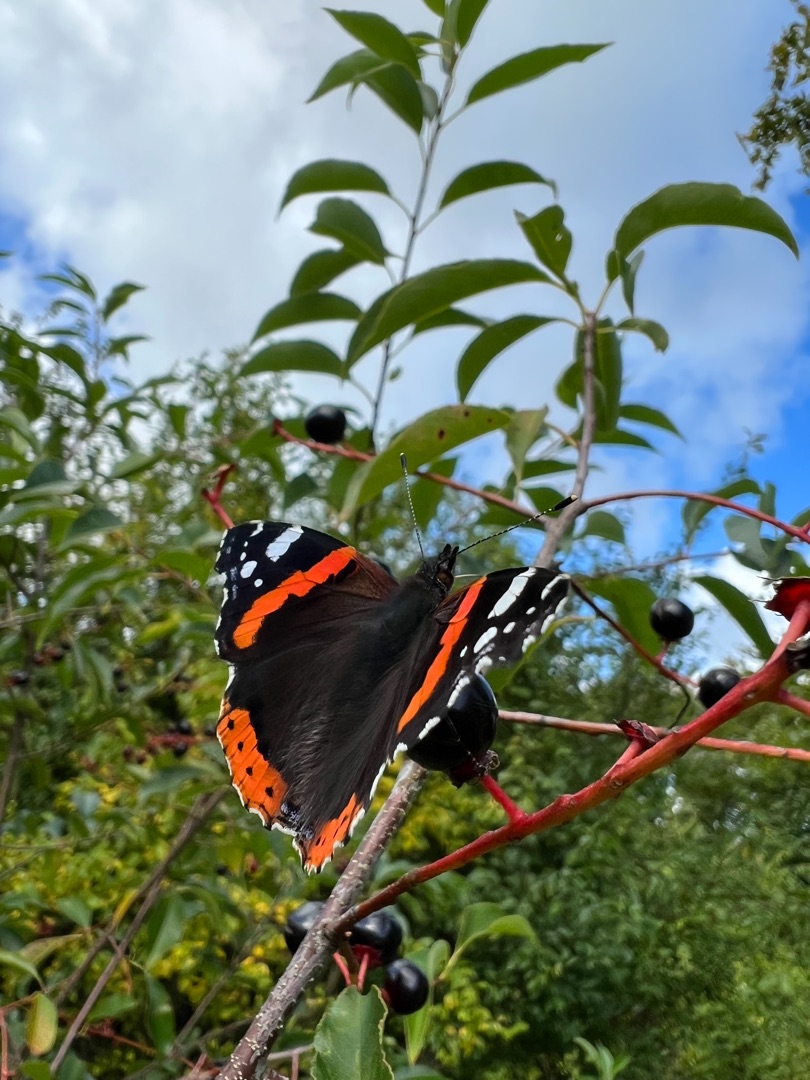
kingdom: Animalia
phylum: Arthropoda
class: Insecta
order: Lepidoptera
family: Nymphalidae
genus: Vanessa
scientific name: Vanessa atalanta
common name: Admiral
